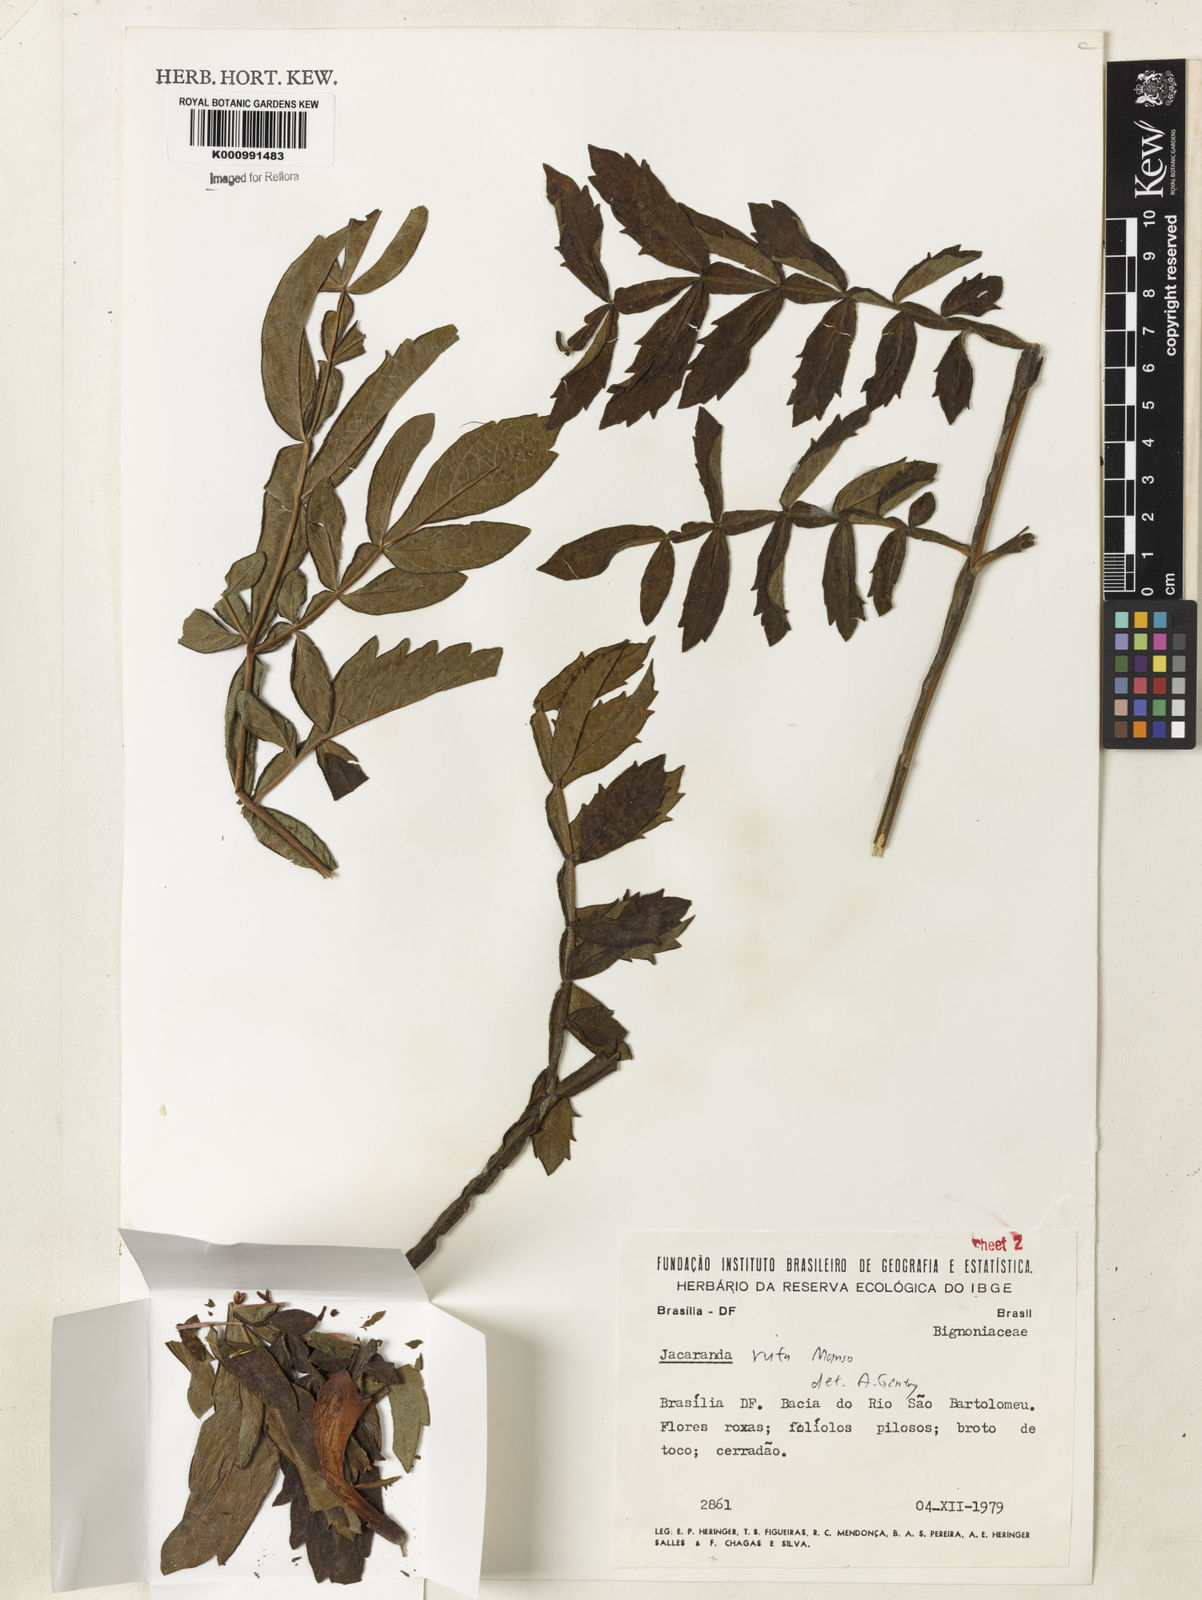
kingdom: Plantae
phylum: Tracheophyta
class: Magnoliopsida
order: Lamiales
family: Bignoniaceae
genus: Jacaranda
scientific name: Jacaranda rufa
